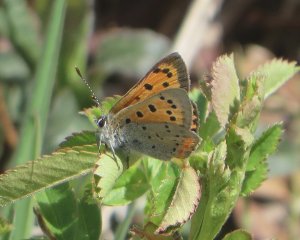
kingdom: Animalia
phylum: Arthropoda
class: Insecta
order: Lepidoptera
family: Lycaenidae
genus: Lycaena
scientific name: Lycaena phlaeas
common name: American Copper
